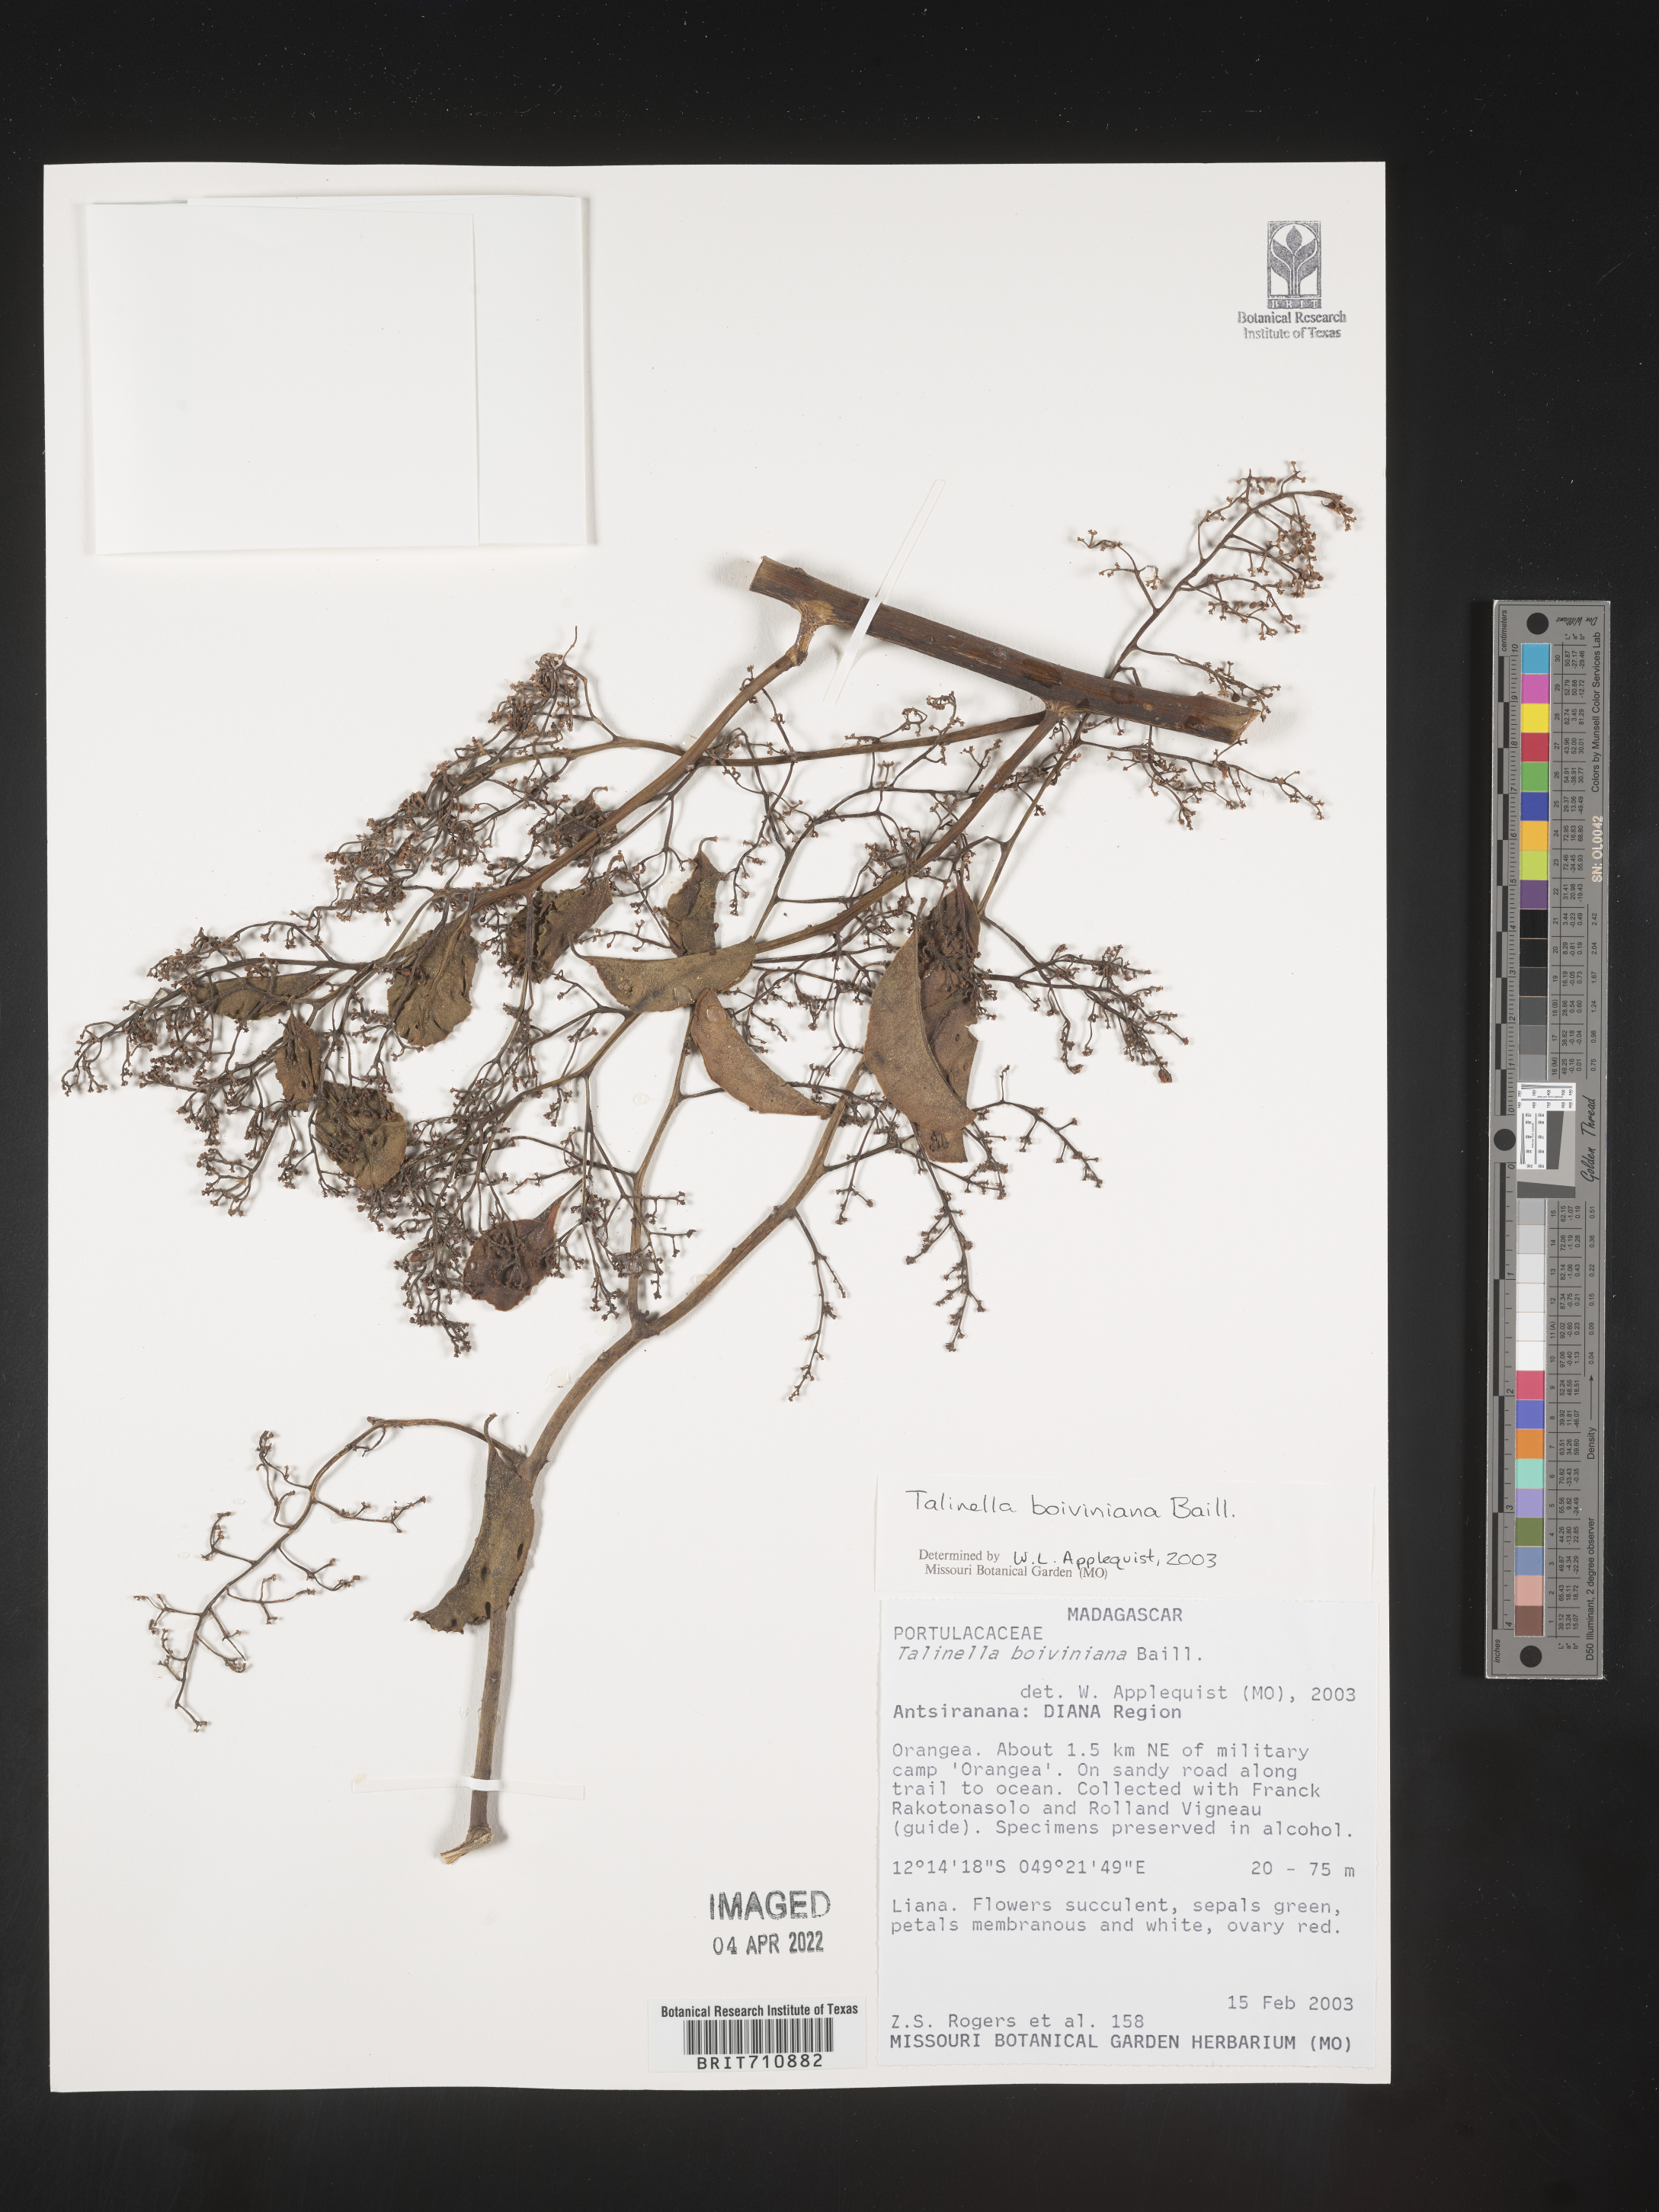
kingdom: Plantae
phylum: Tracheophyta
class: Magnoliopsida
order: Caryophyllales
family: Talinaceae
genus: Talinella
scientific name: Talinella
